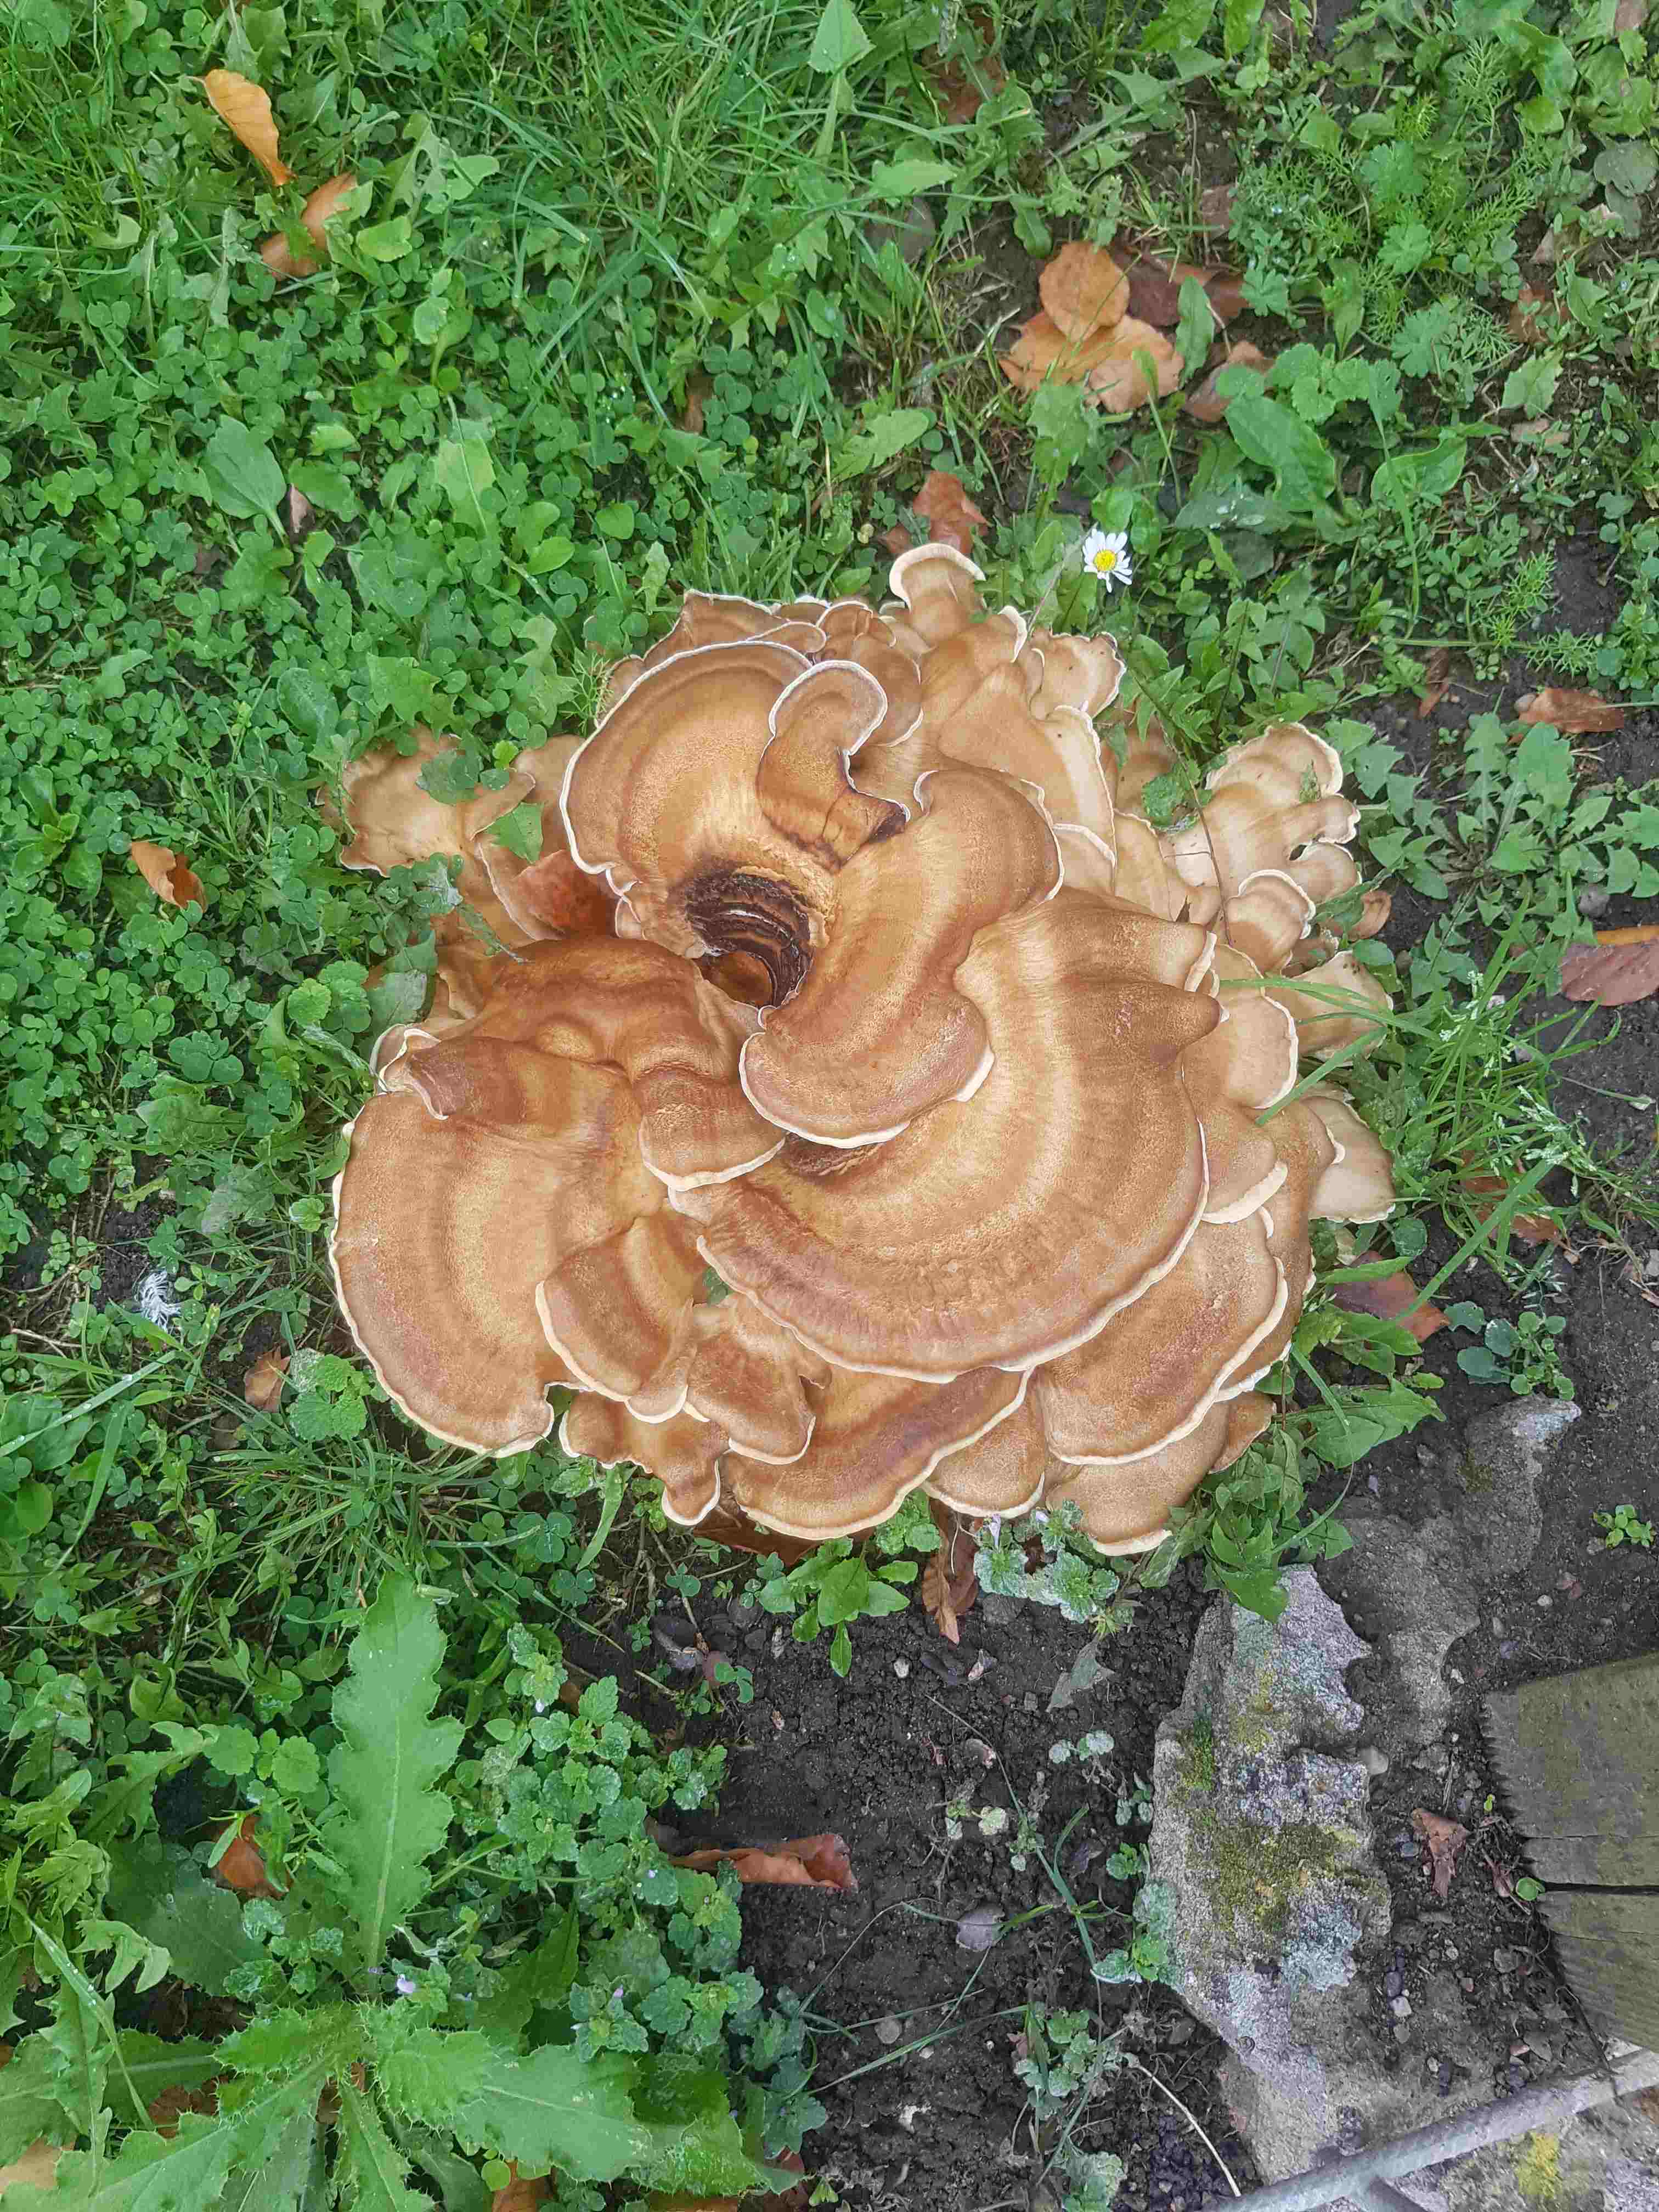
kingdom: Fungi
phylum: Basidiomycota
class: Agaricomycetes
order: Polyporales
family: Meripilaceae
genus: Meripilus
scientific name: Meripilus giganteus
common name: kæmpeporesvamp
